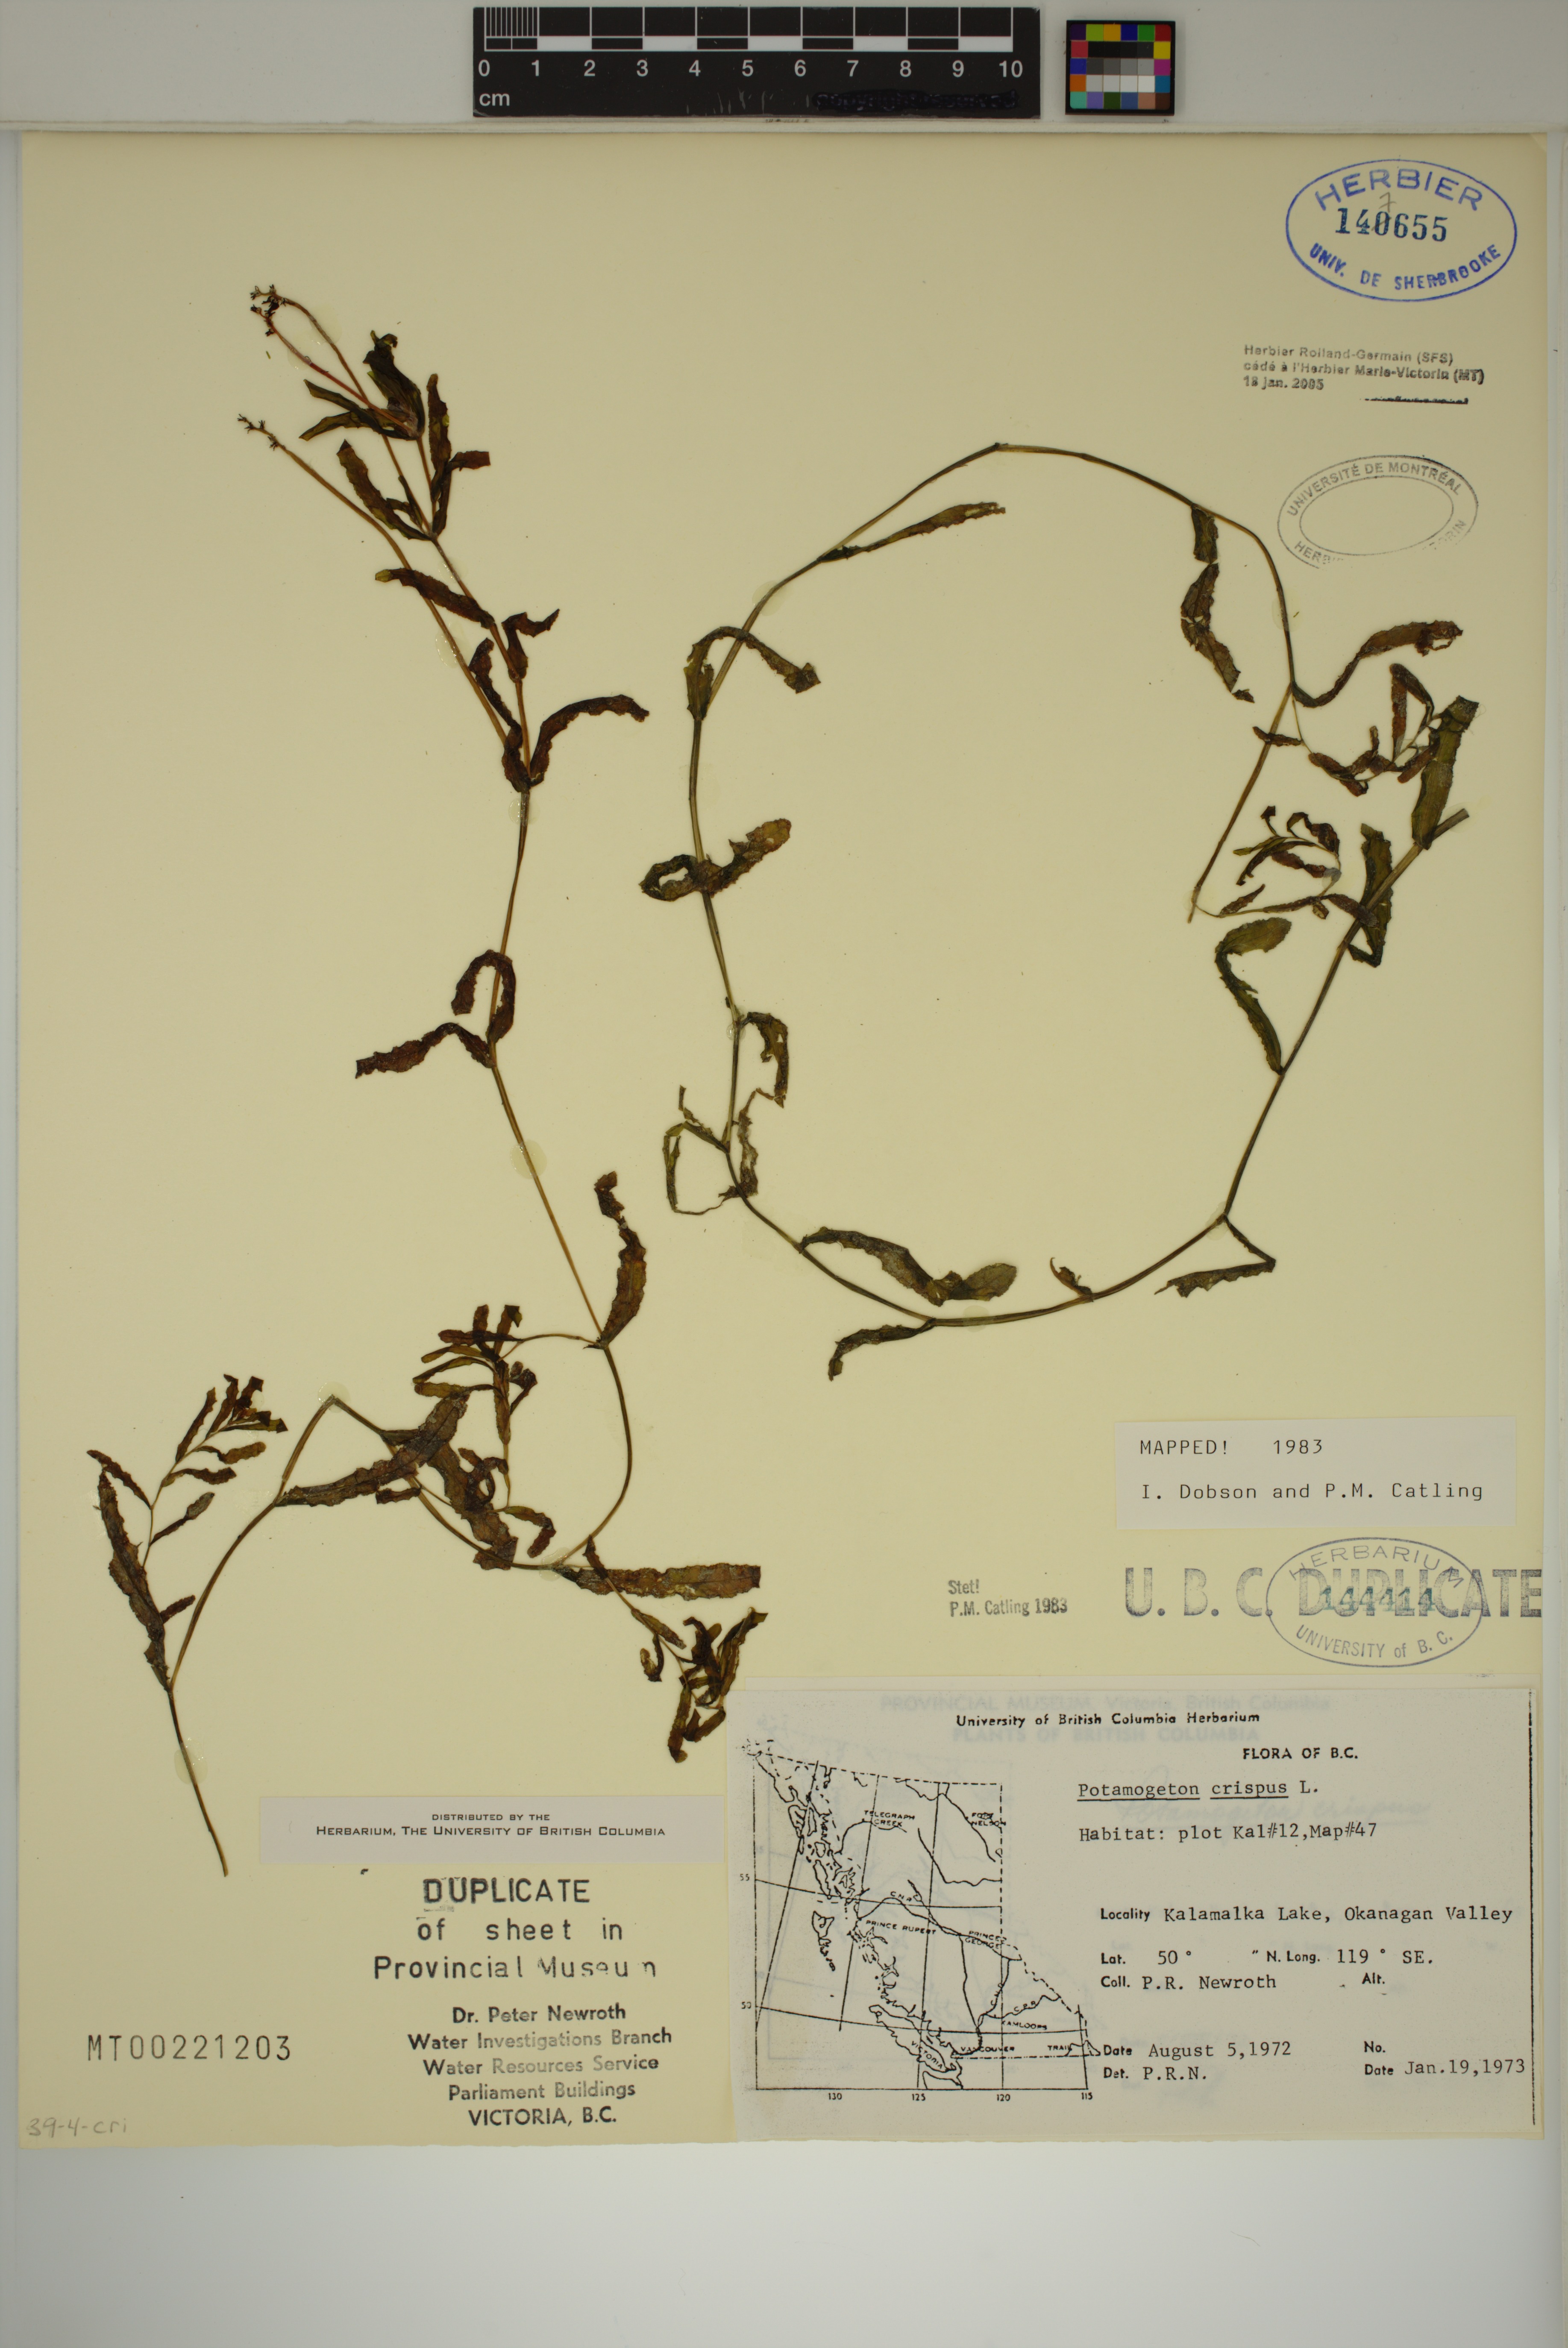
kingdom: Plantae
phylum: Tracheophyta
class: Liliopsida
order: Alismatales
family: Potamogetonaceae
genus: Potamogeton
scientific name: Potamogeton crispus
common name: Curled pondweed
